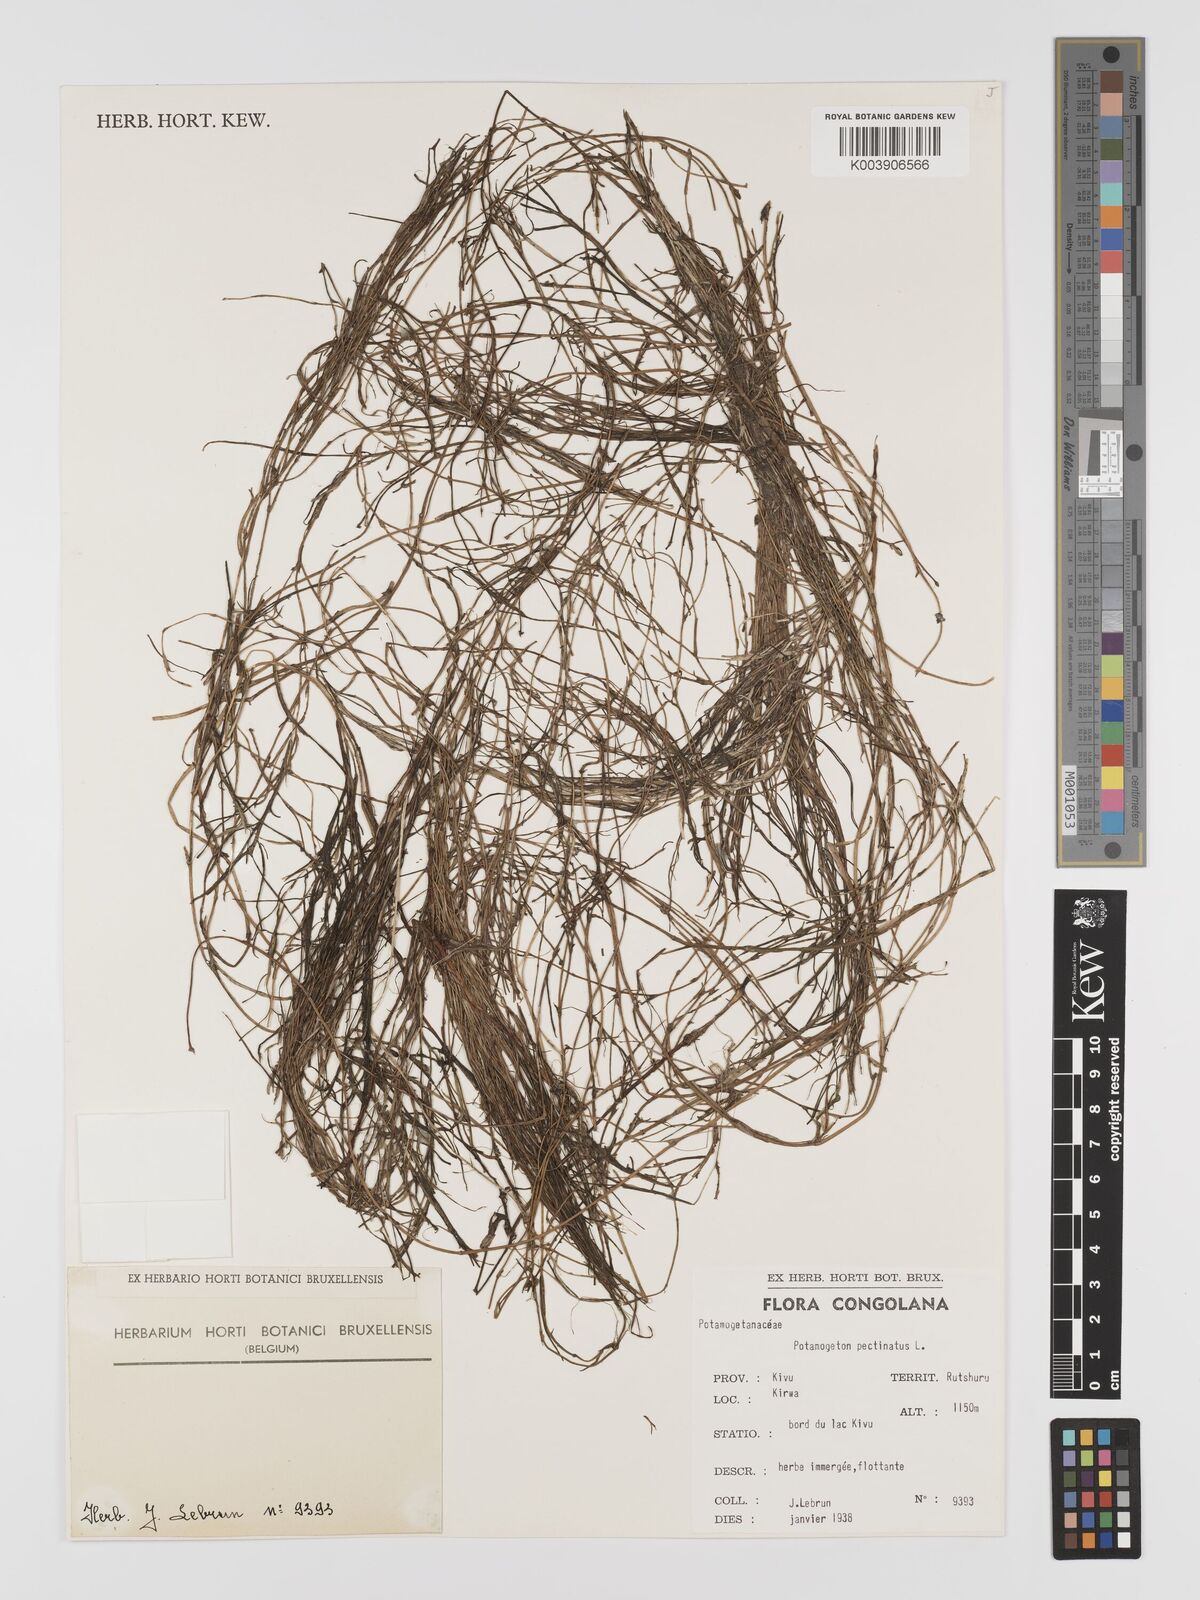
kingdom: Plantae
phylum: Tracheophyta
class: Liliopsida
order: Alismatales
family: Potamogetonaceae
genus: Stuckenia
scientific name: Stuckenia pectinata
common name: Sago pondweed
